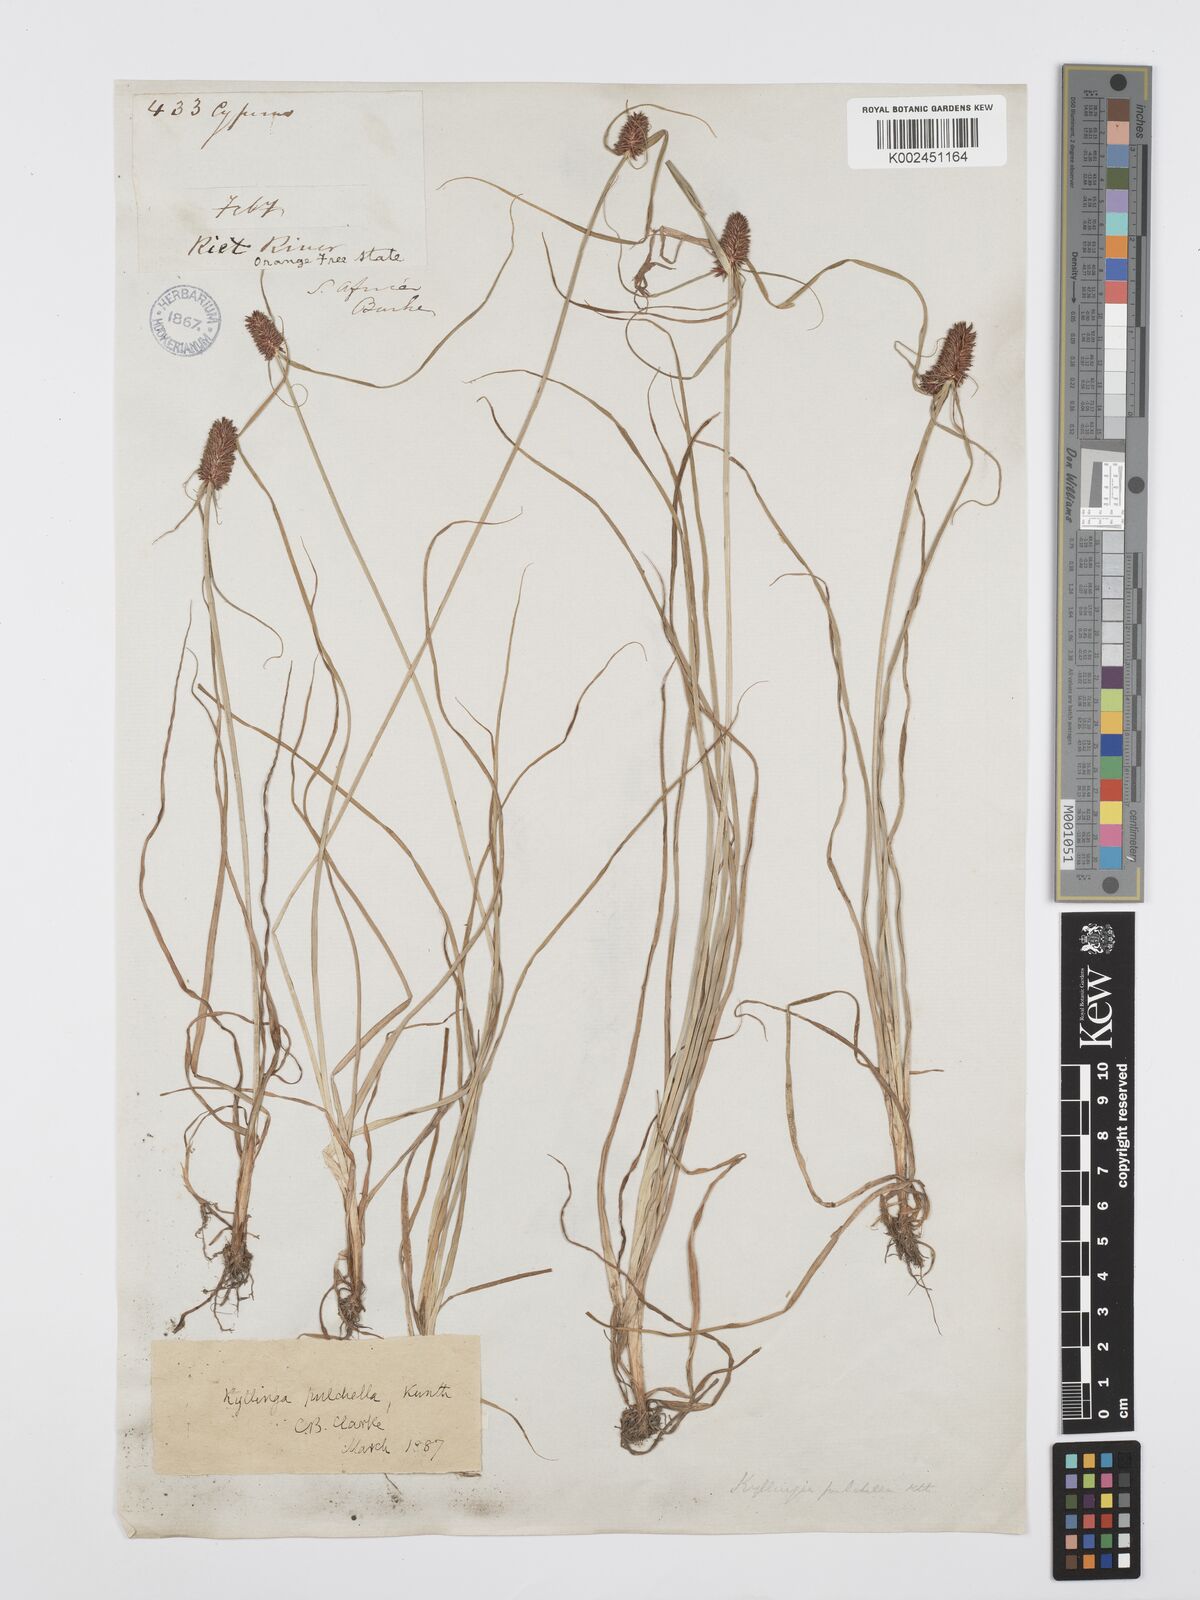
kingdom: Plantae
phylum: Tracheophyta
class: Liliopsida
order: Poales
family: Cyperaceae
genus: Cyperus
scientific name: Cyperus
